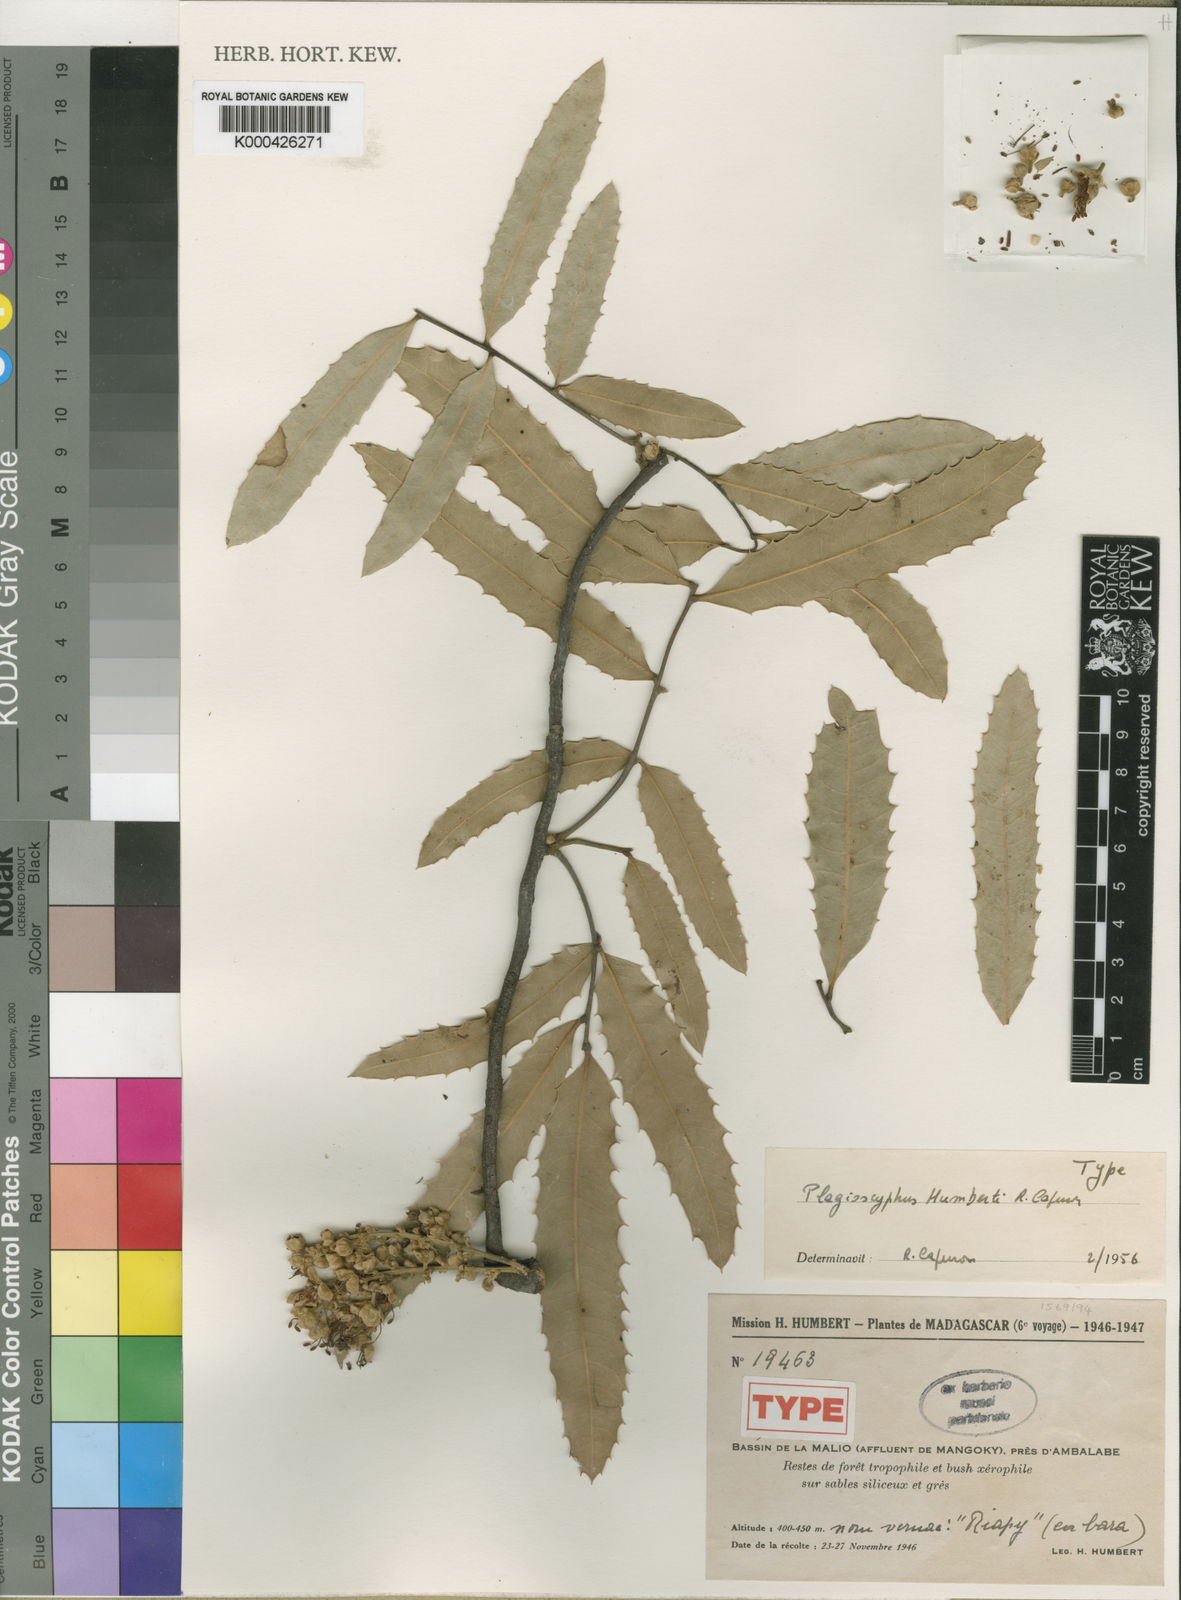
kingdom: Plantae
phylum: Tracheophyta
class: Magnoliopsida
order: Sapindales
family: Sapindaceae
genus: Plagioscyphus
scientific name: Plagioscyphus
